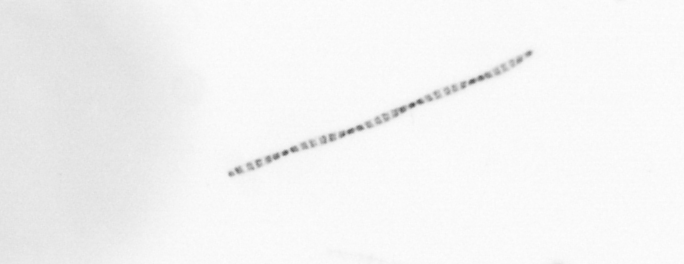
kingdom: Chromista
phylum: Ochrophyta
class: Bacillariophyceae
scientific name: Bacillariophyceae
